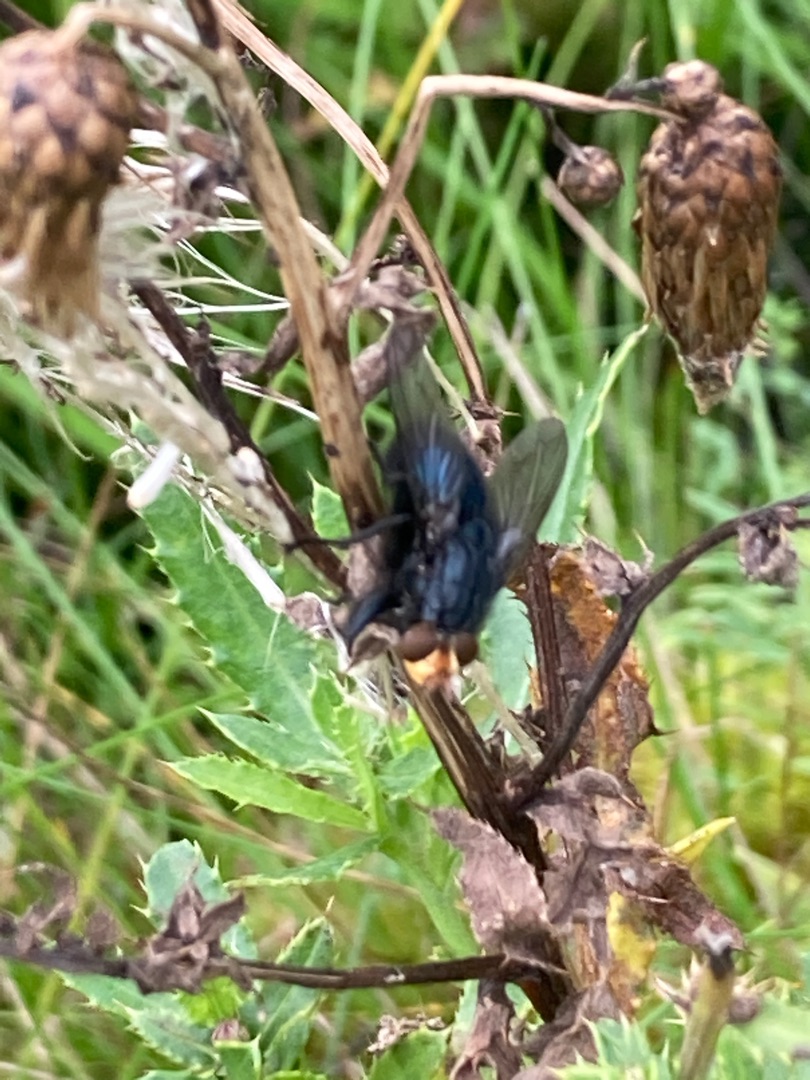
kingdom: Animalia
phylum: Arthropoda
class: Insecta
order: Diptera
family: Calliphoridae
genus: Cynomya
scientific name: Cynomya mortuorum
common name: Dødsflue
